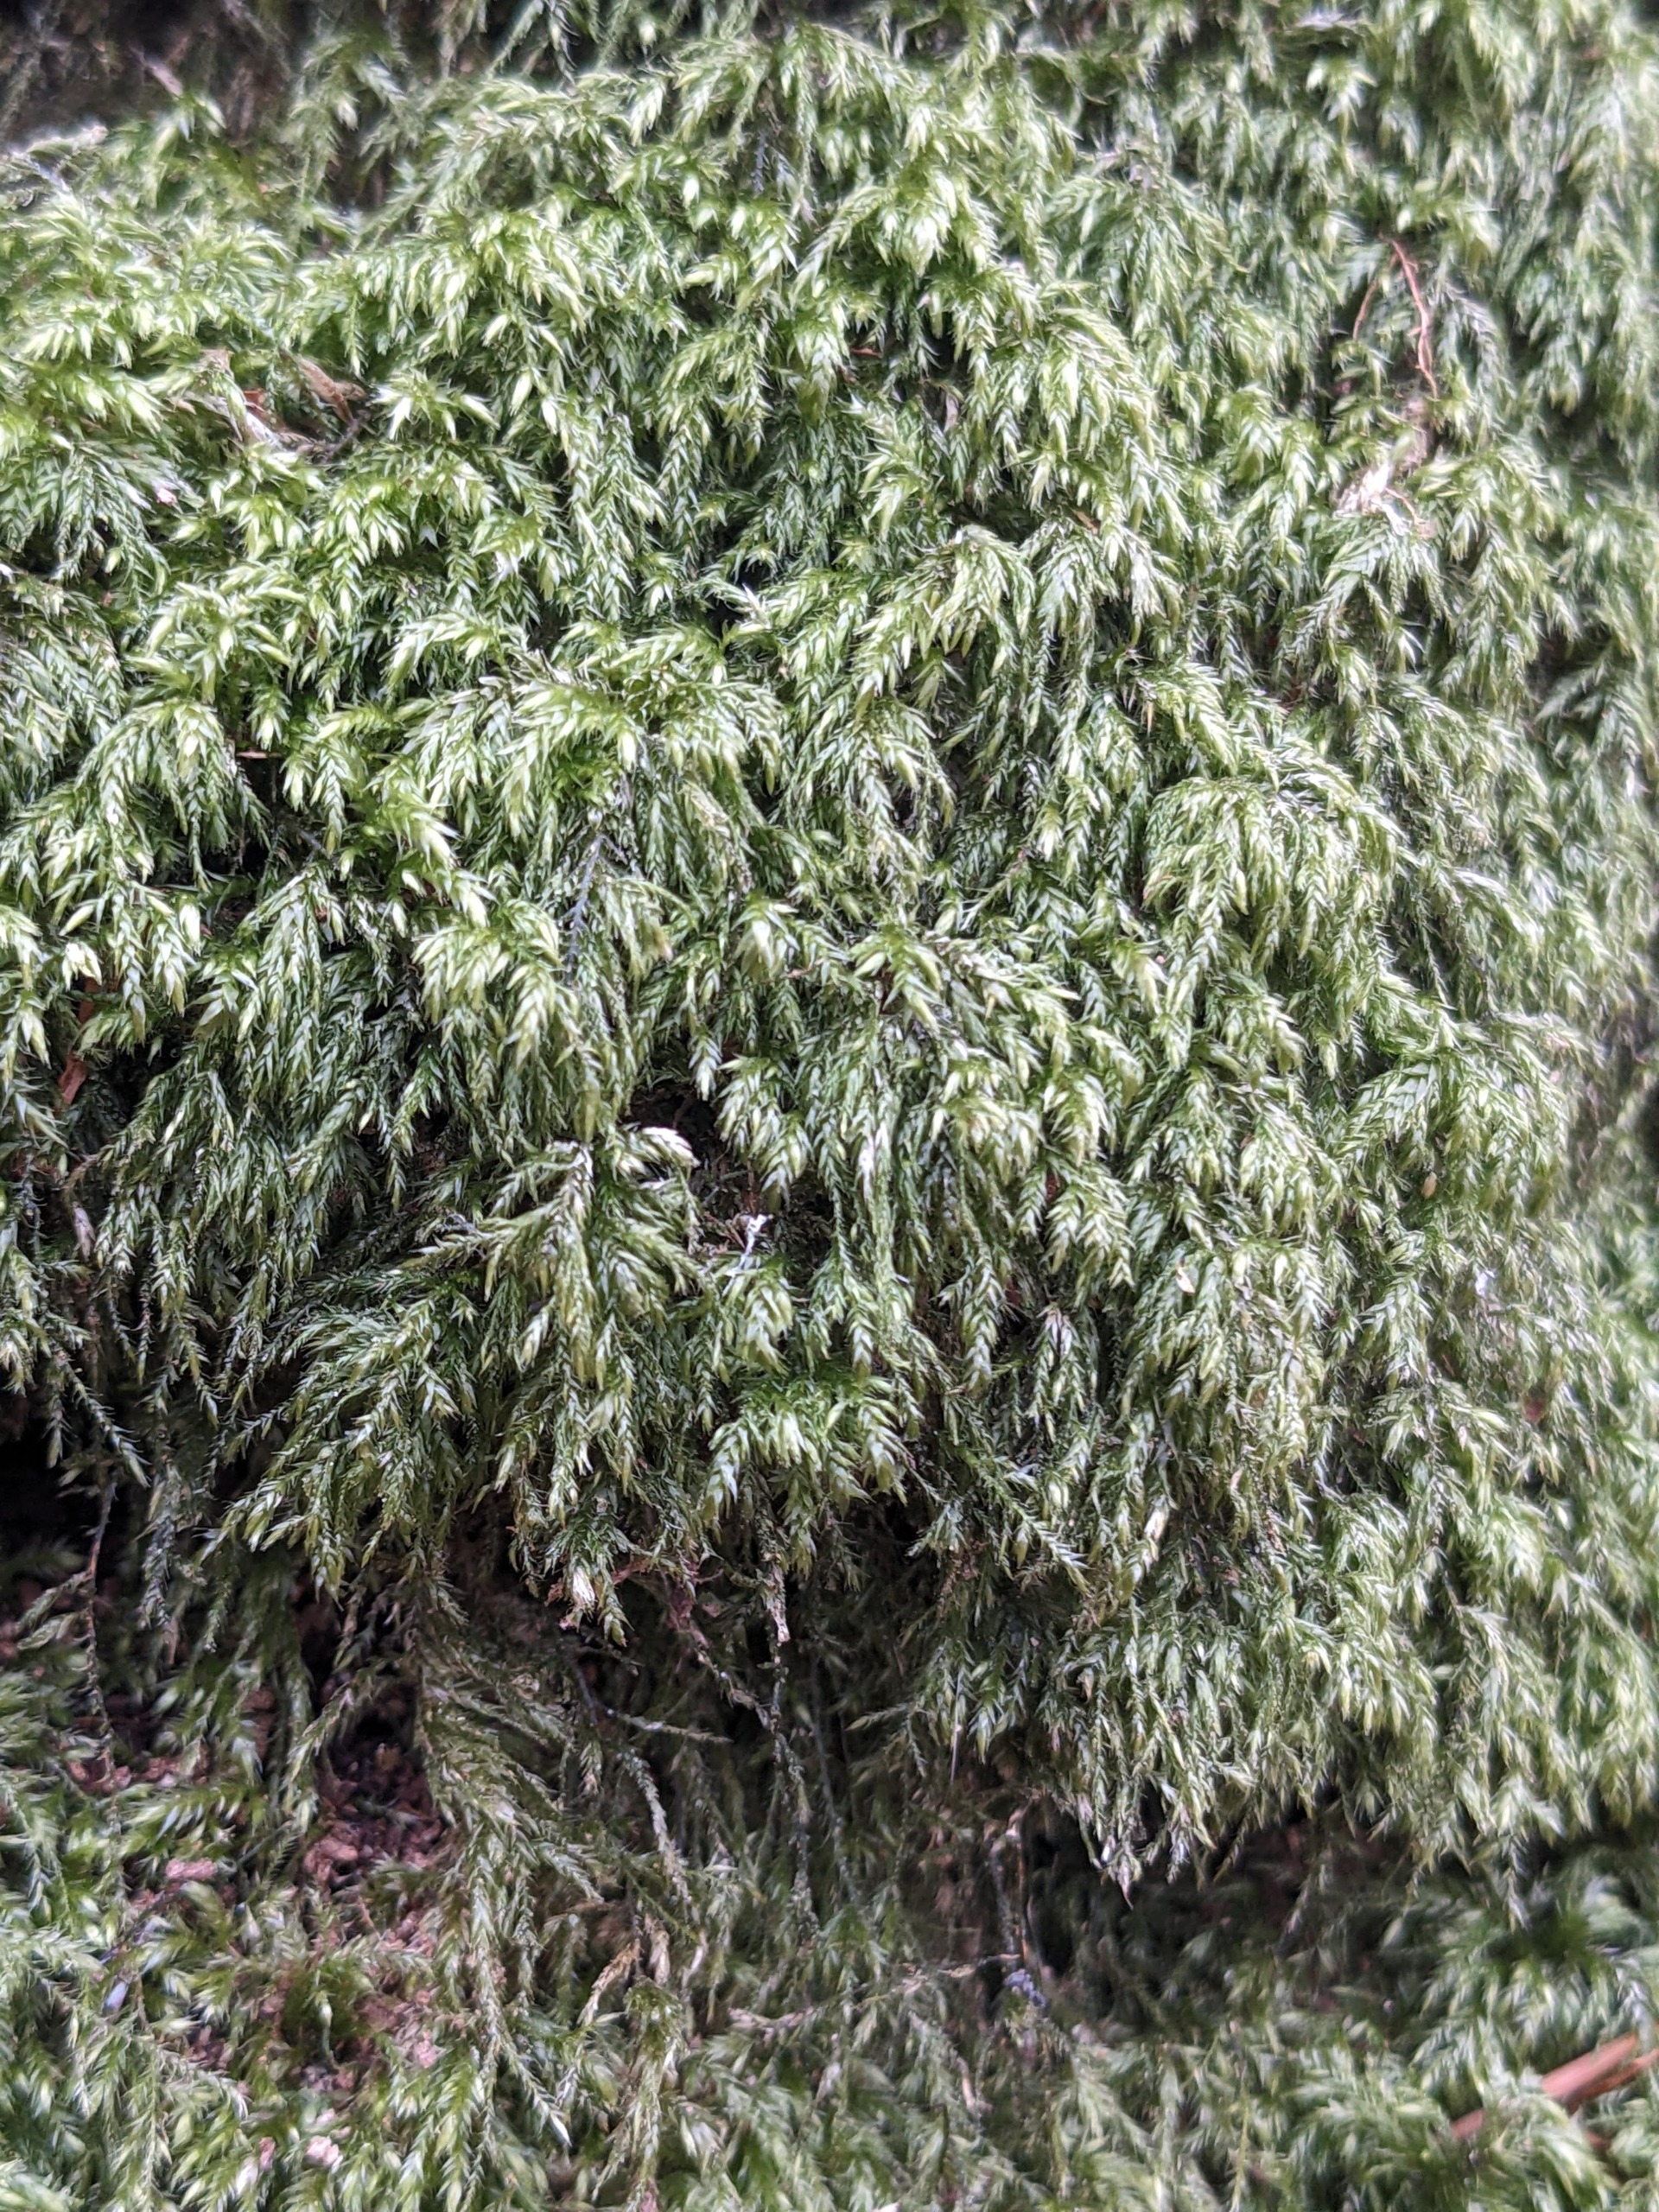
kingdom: Plantae
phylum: Bryophyta
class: Bryopsida
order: Hypnales
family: Lembophyllaceae
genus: Pseudisothecium
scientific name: Pseudisothecium myosuroides
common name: Slank stammemos
